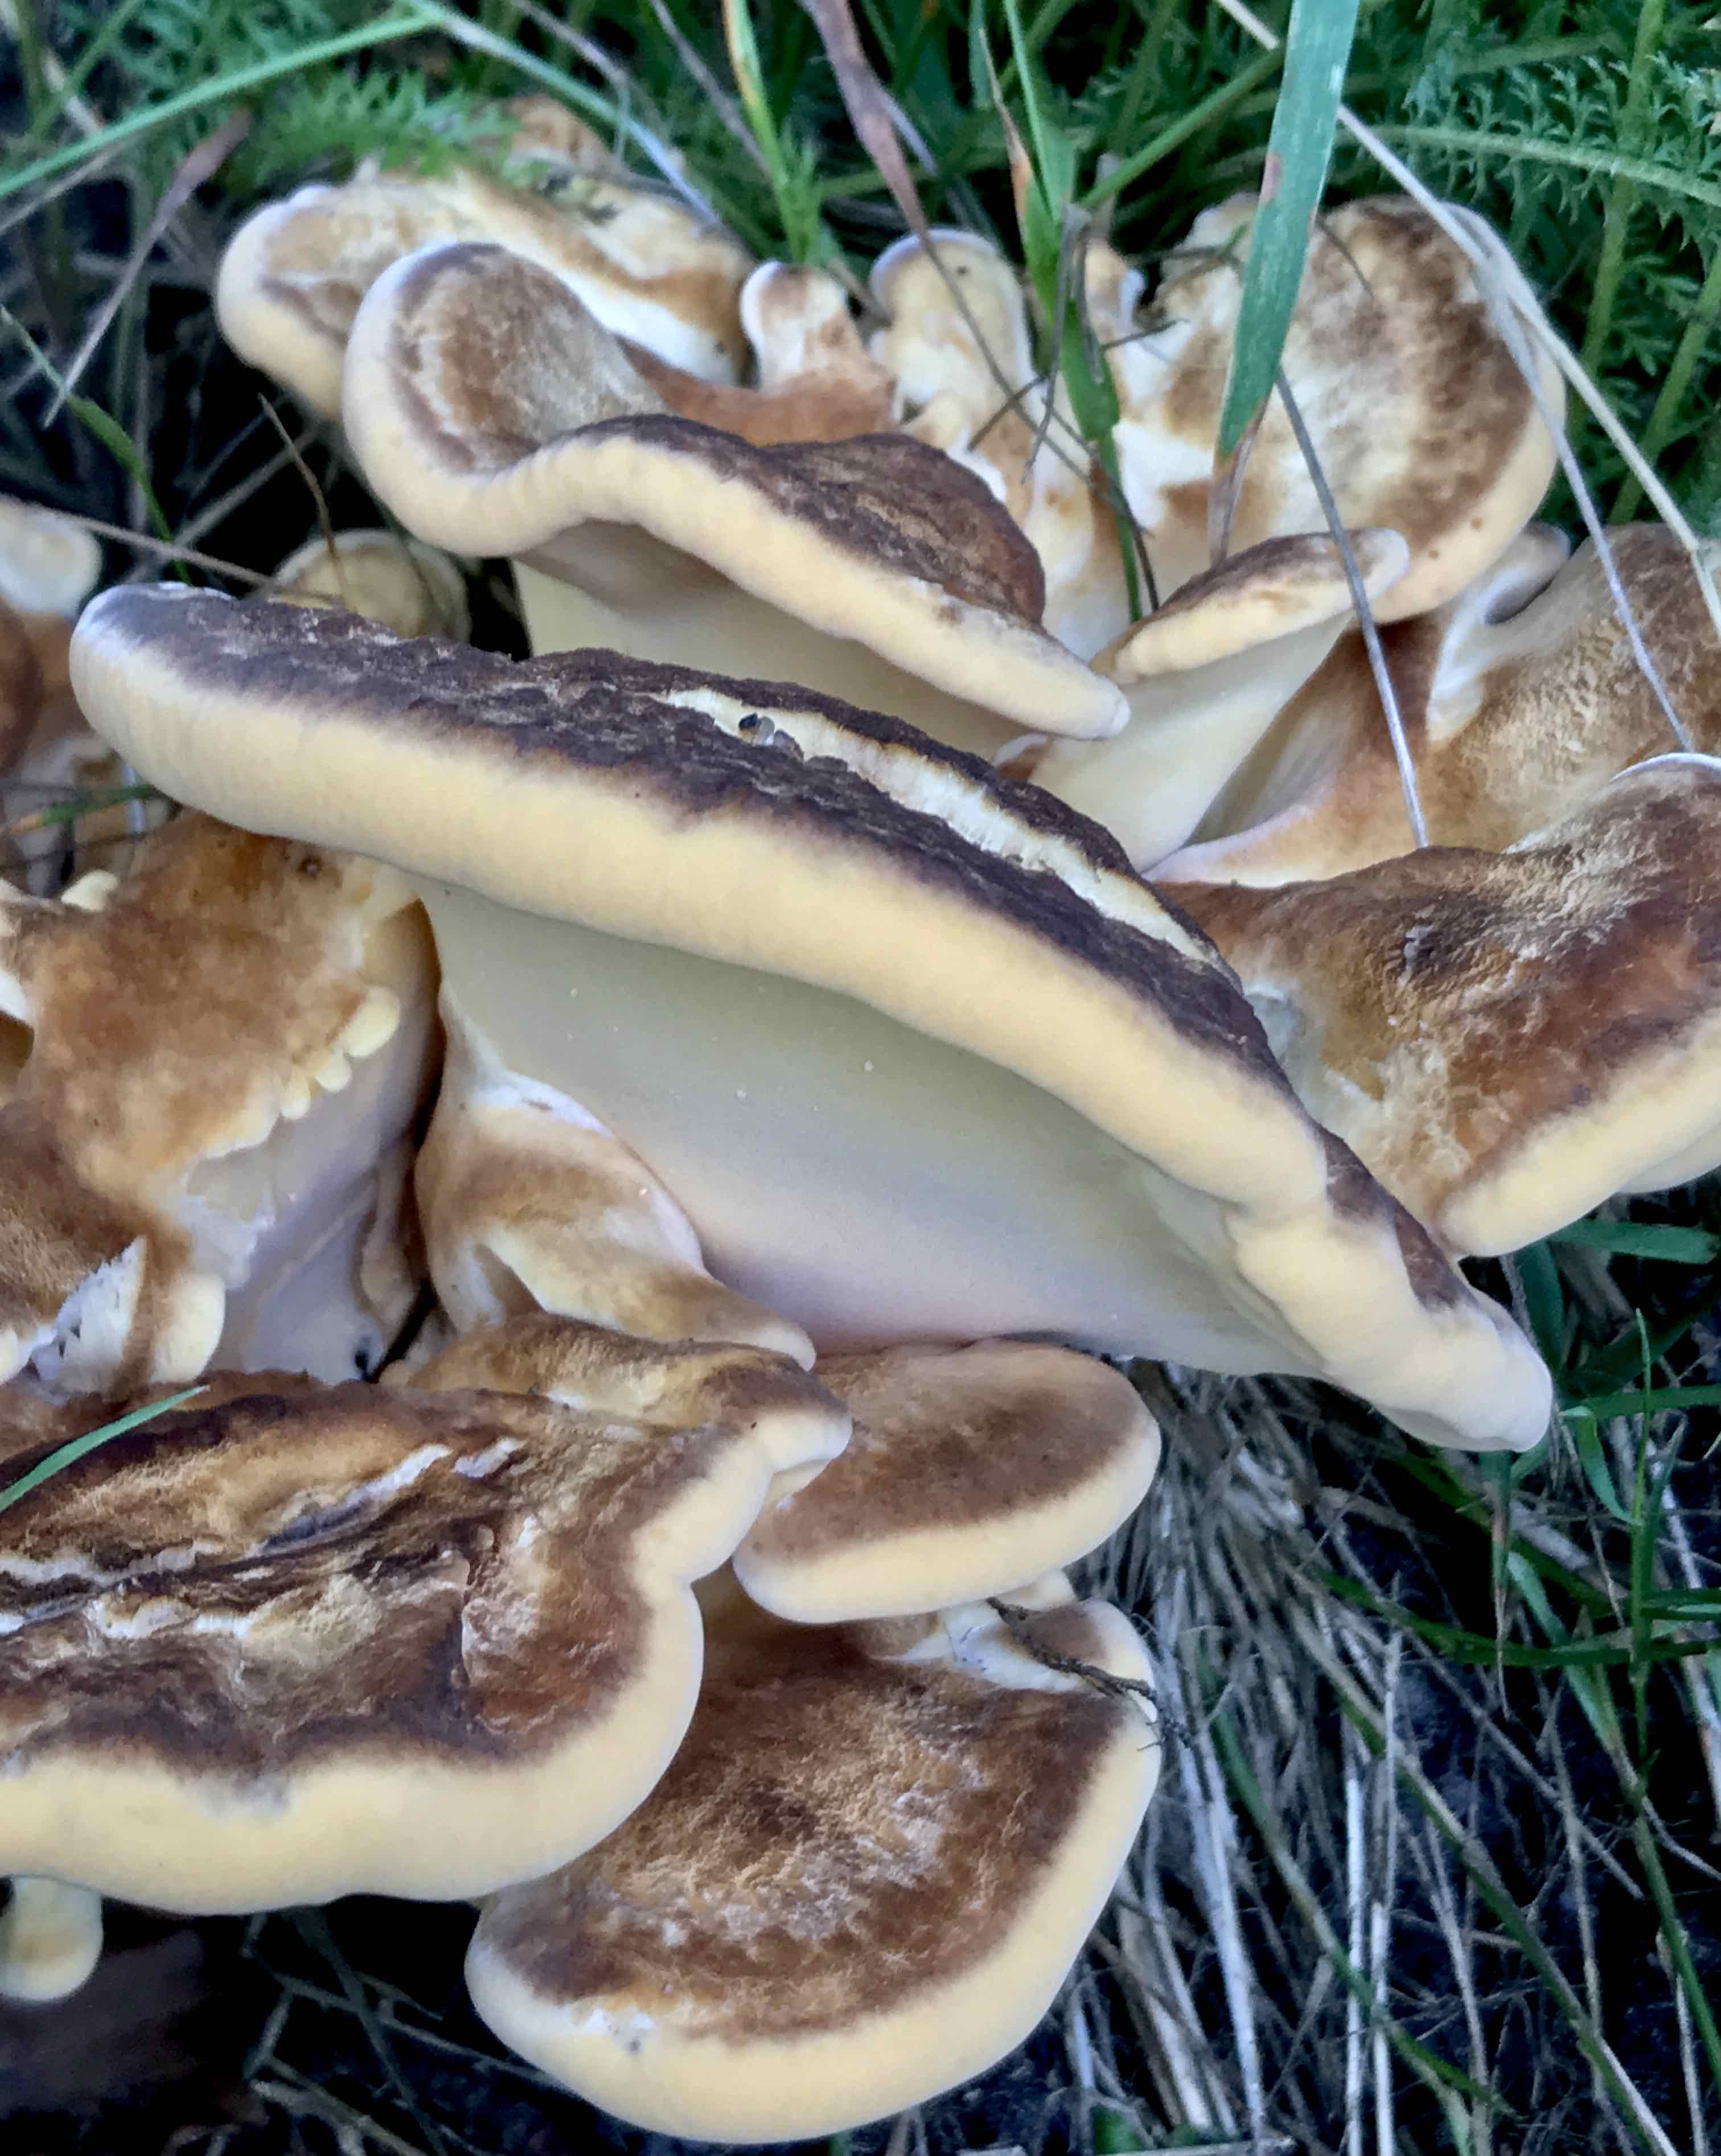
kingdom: Fungi
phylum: Basidiomycota
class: Agaricomycetes
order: Polyporales
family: Meripilaceae
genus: Meripilus
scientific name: Meripilus giganteus
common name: kæmpeporesvamp
